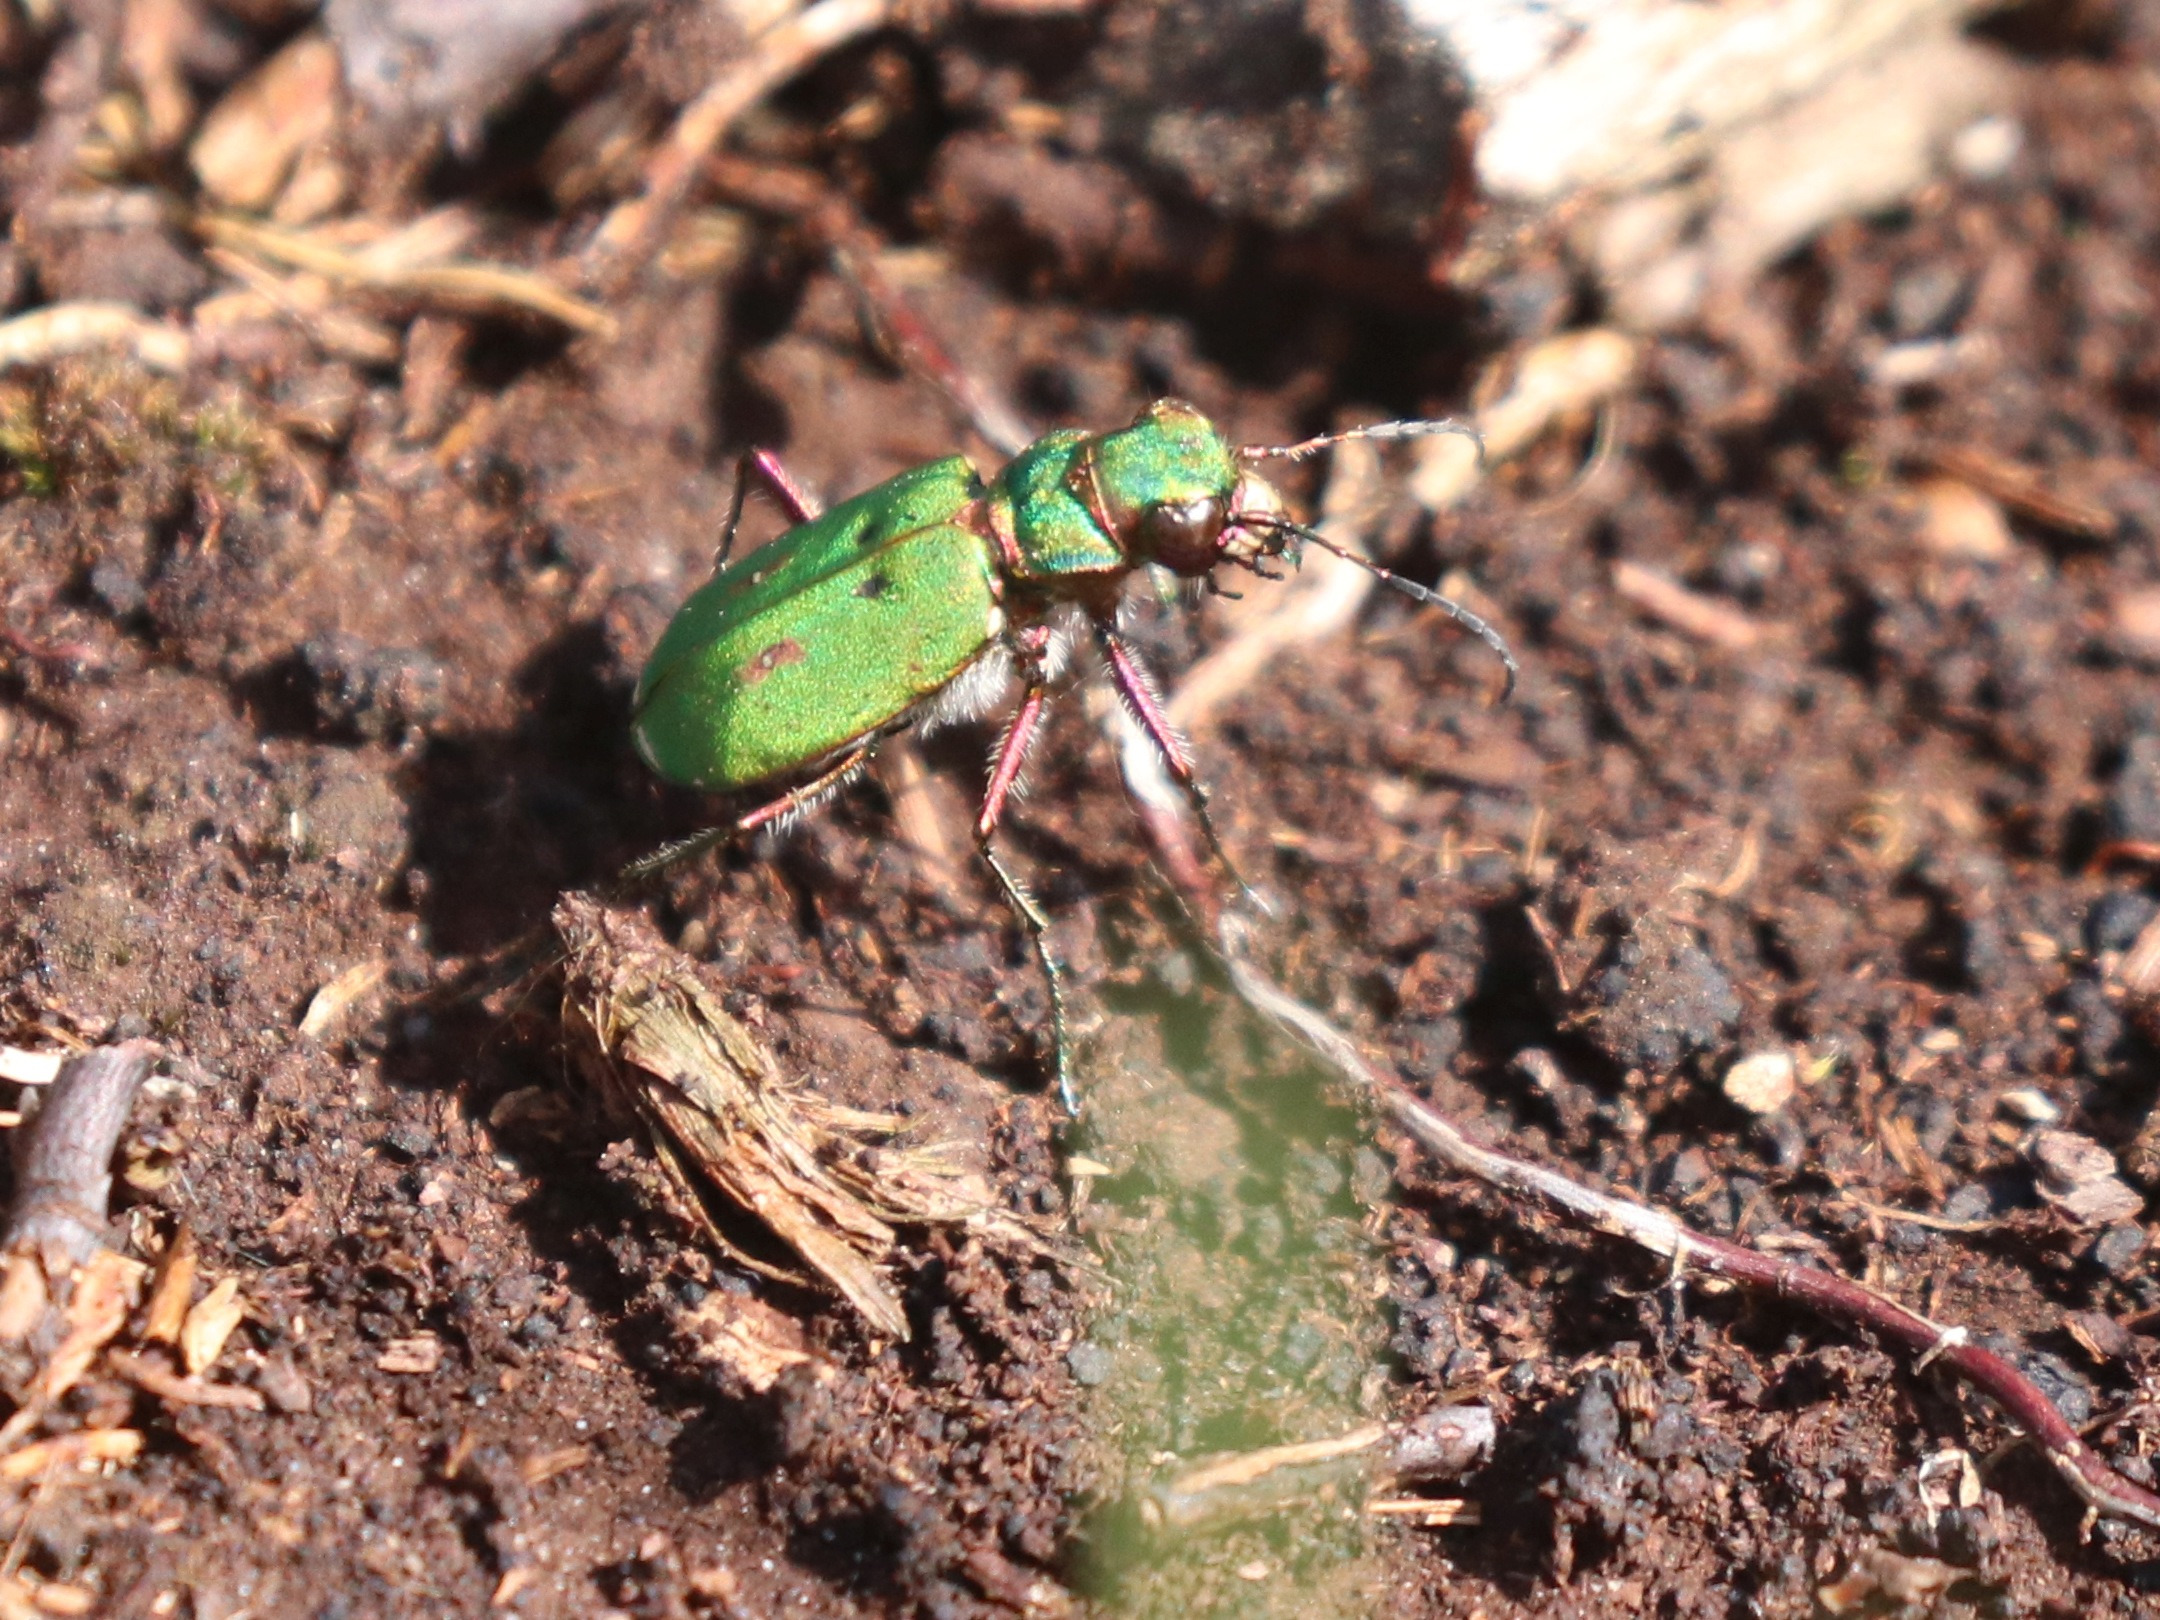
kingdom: Animalia
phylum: Arthropoda
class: Insecta
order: Coleoptera
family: Carabidae
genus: Cicindela
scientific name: Cicindela campestris
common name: Grøn sandspringer
